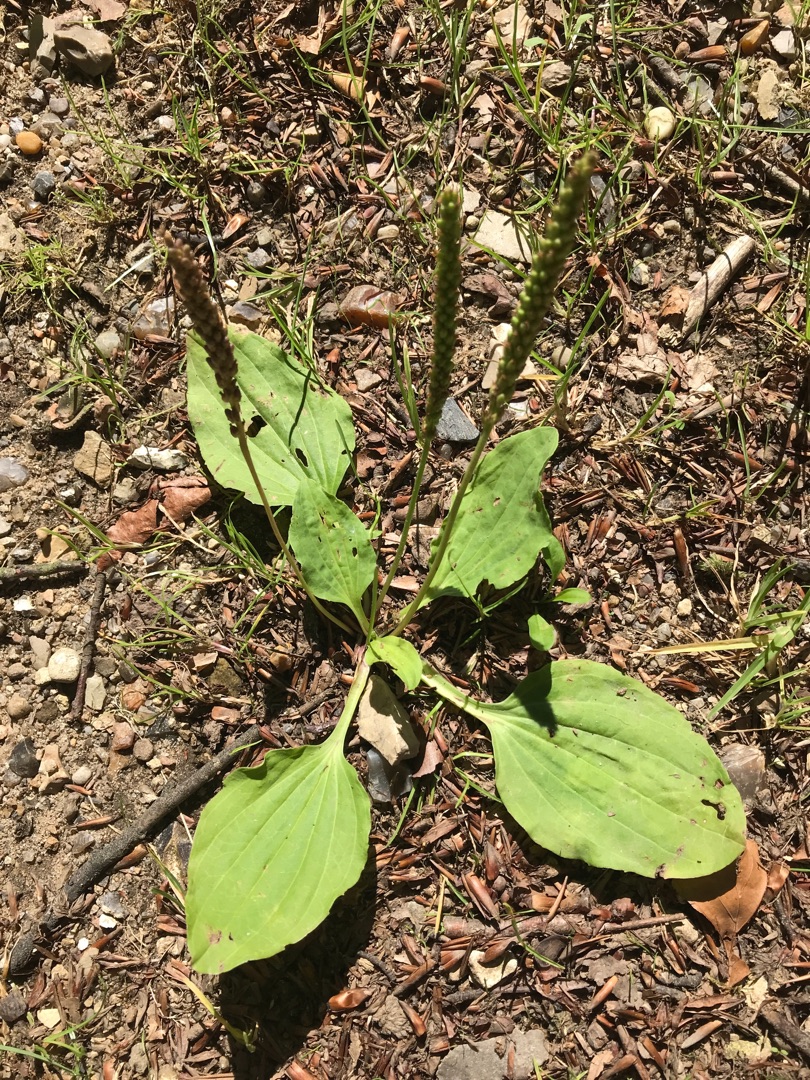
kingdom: Plantae
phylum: Tracheophyta
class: Magnoliopsida
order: Lamiales
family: Plantaginaceae
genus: Plantago
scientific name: Plantago major
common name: Glat vejbred
